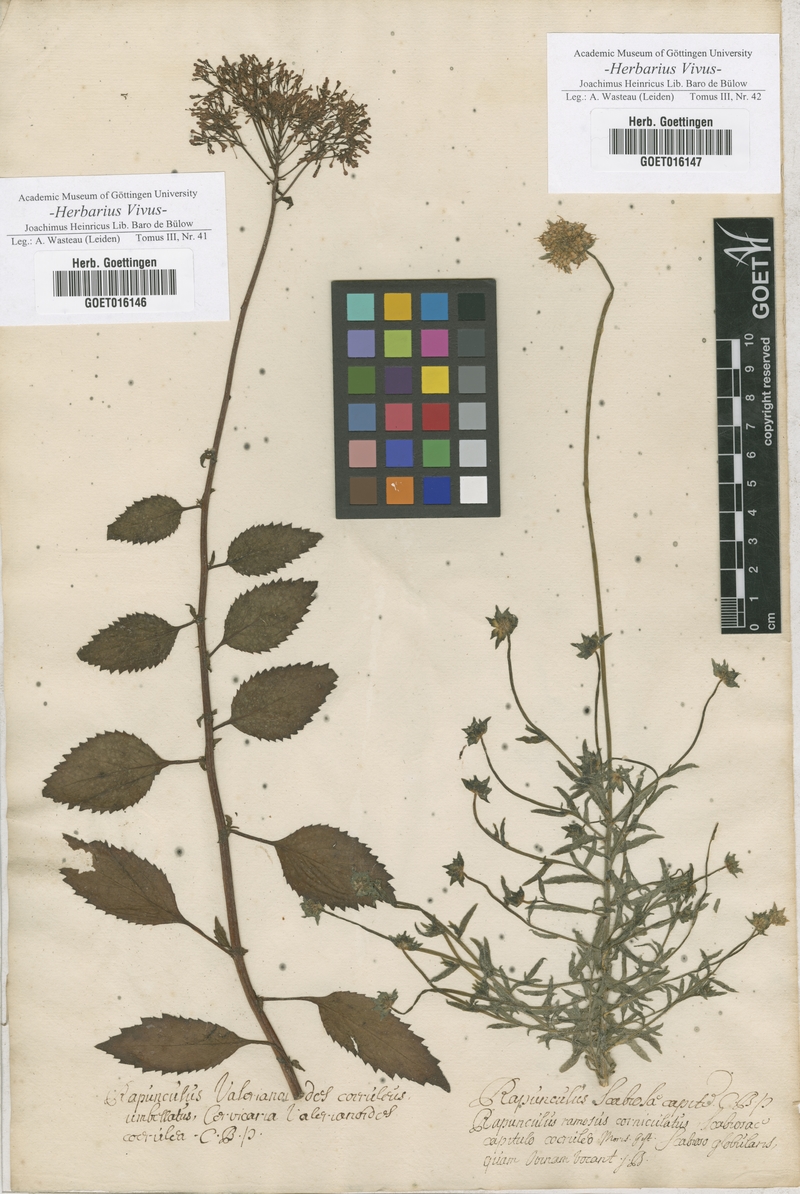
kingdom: Plantae
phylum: Tracheophyta
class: Magnoliopsida
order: Asterales
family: Campanulaceae
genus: Trachelium
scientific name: Trachelium caeruleum
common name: Throatwort
